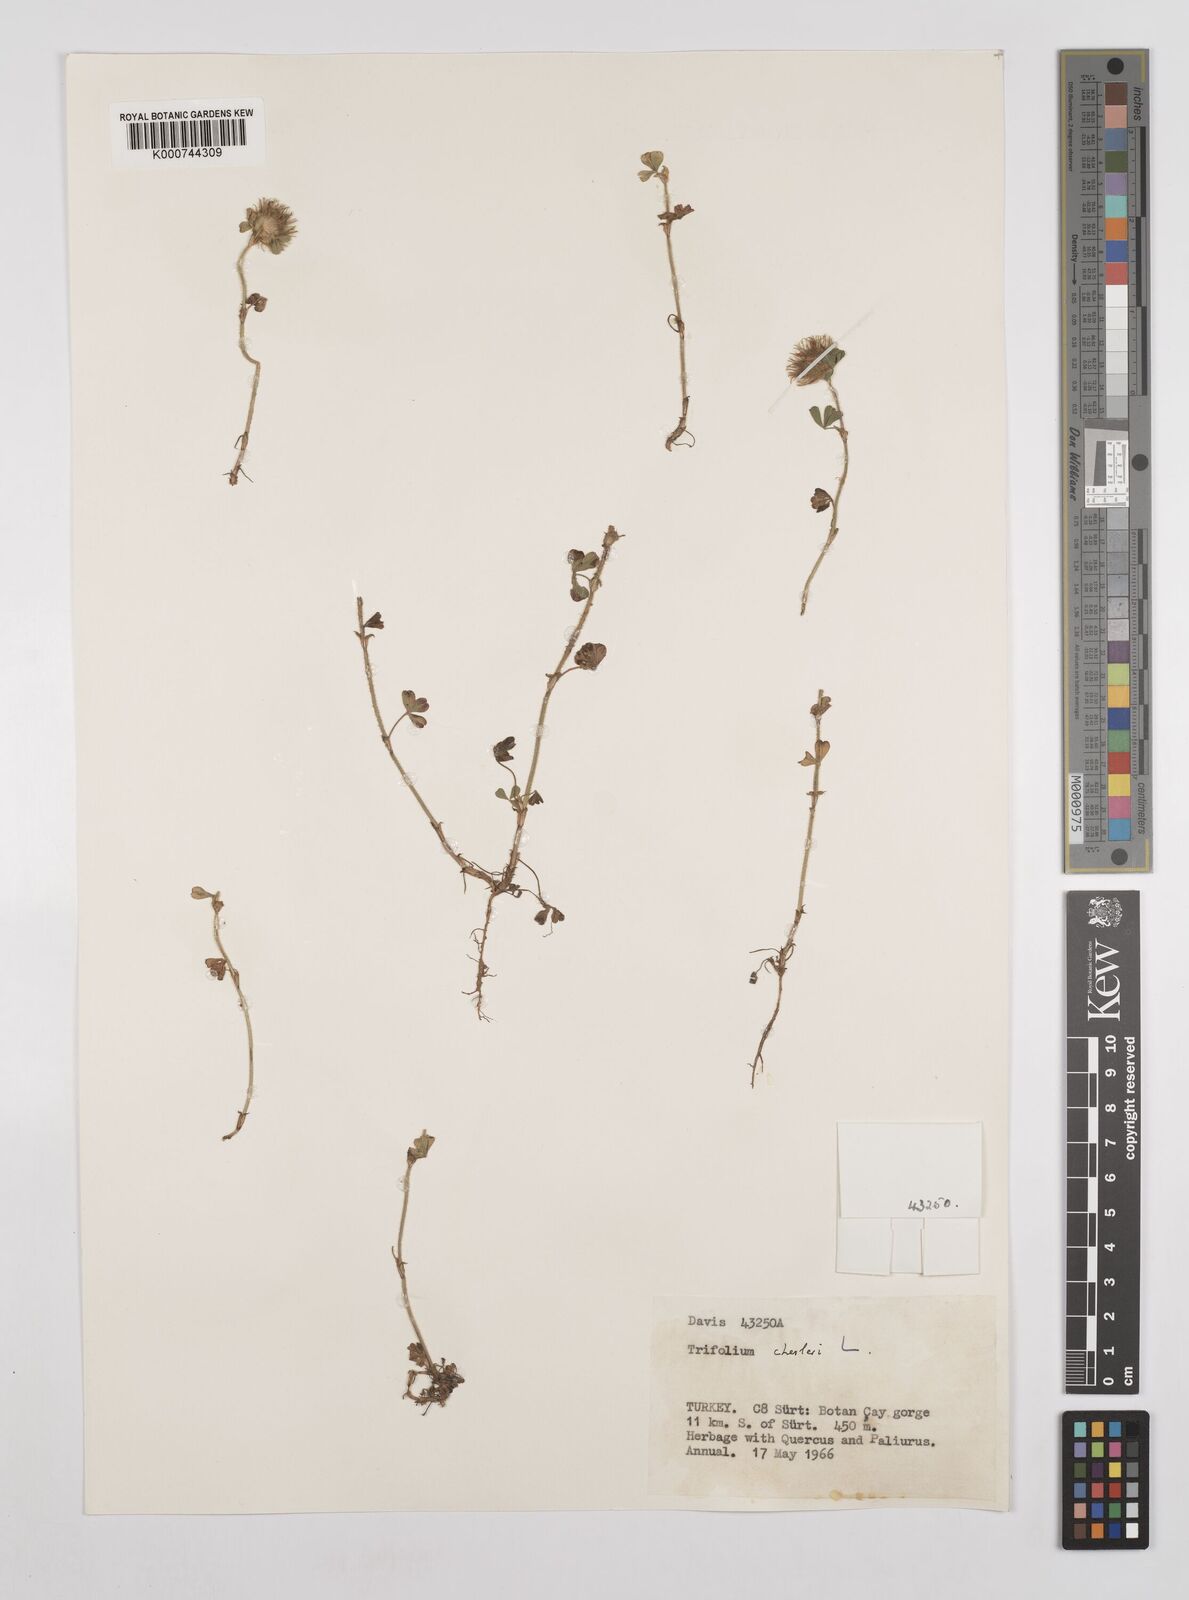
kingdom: Plantae
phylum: Tracheophyta
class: Magnoliopsida
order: Fabales
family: Fabaceae
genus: Trifolium
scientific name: Trifolium cherleri
